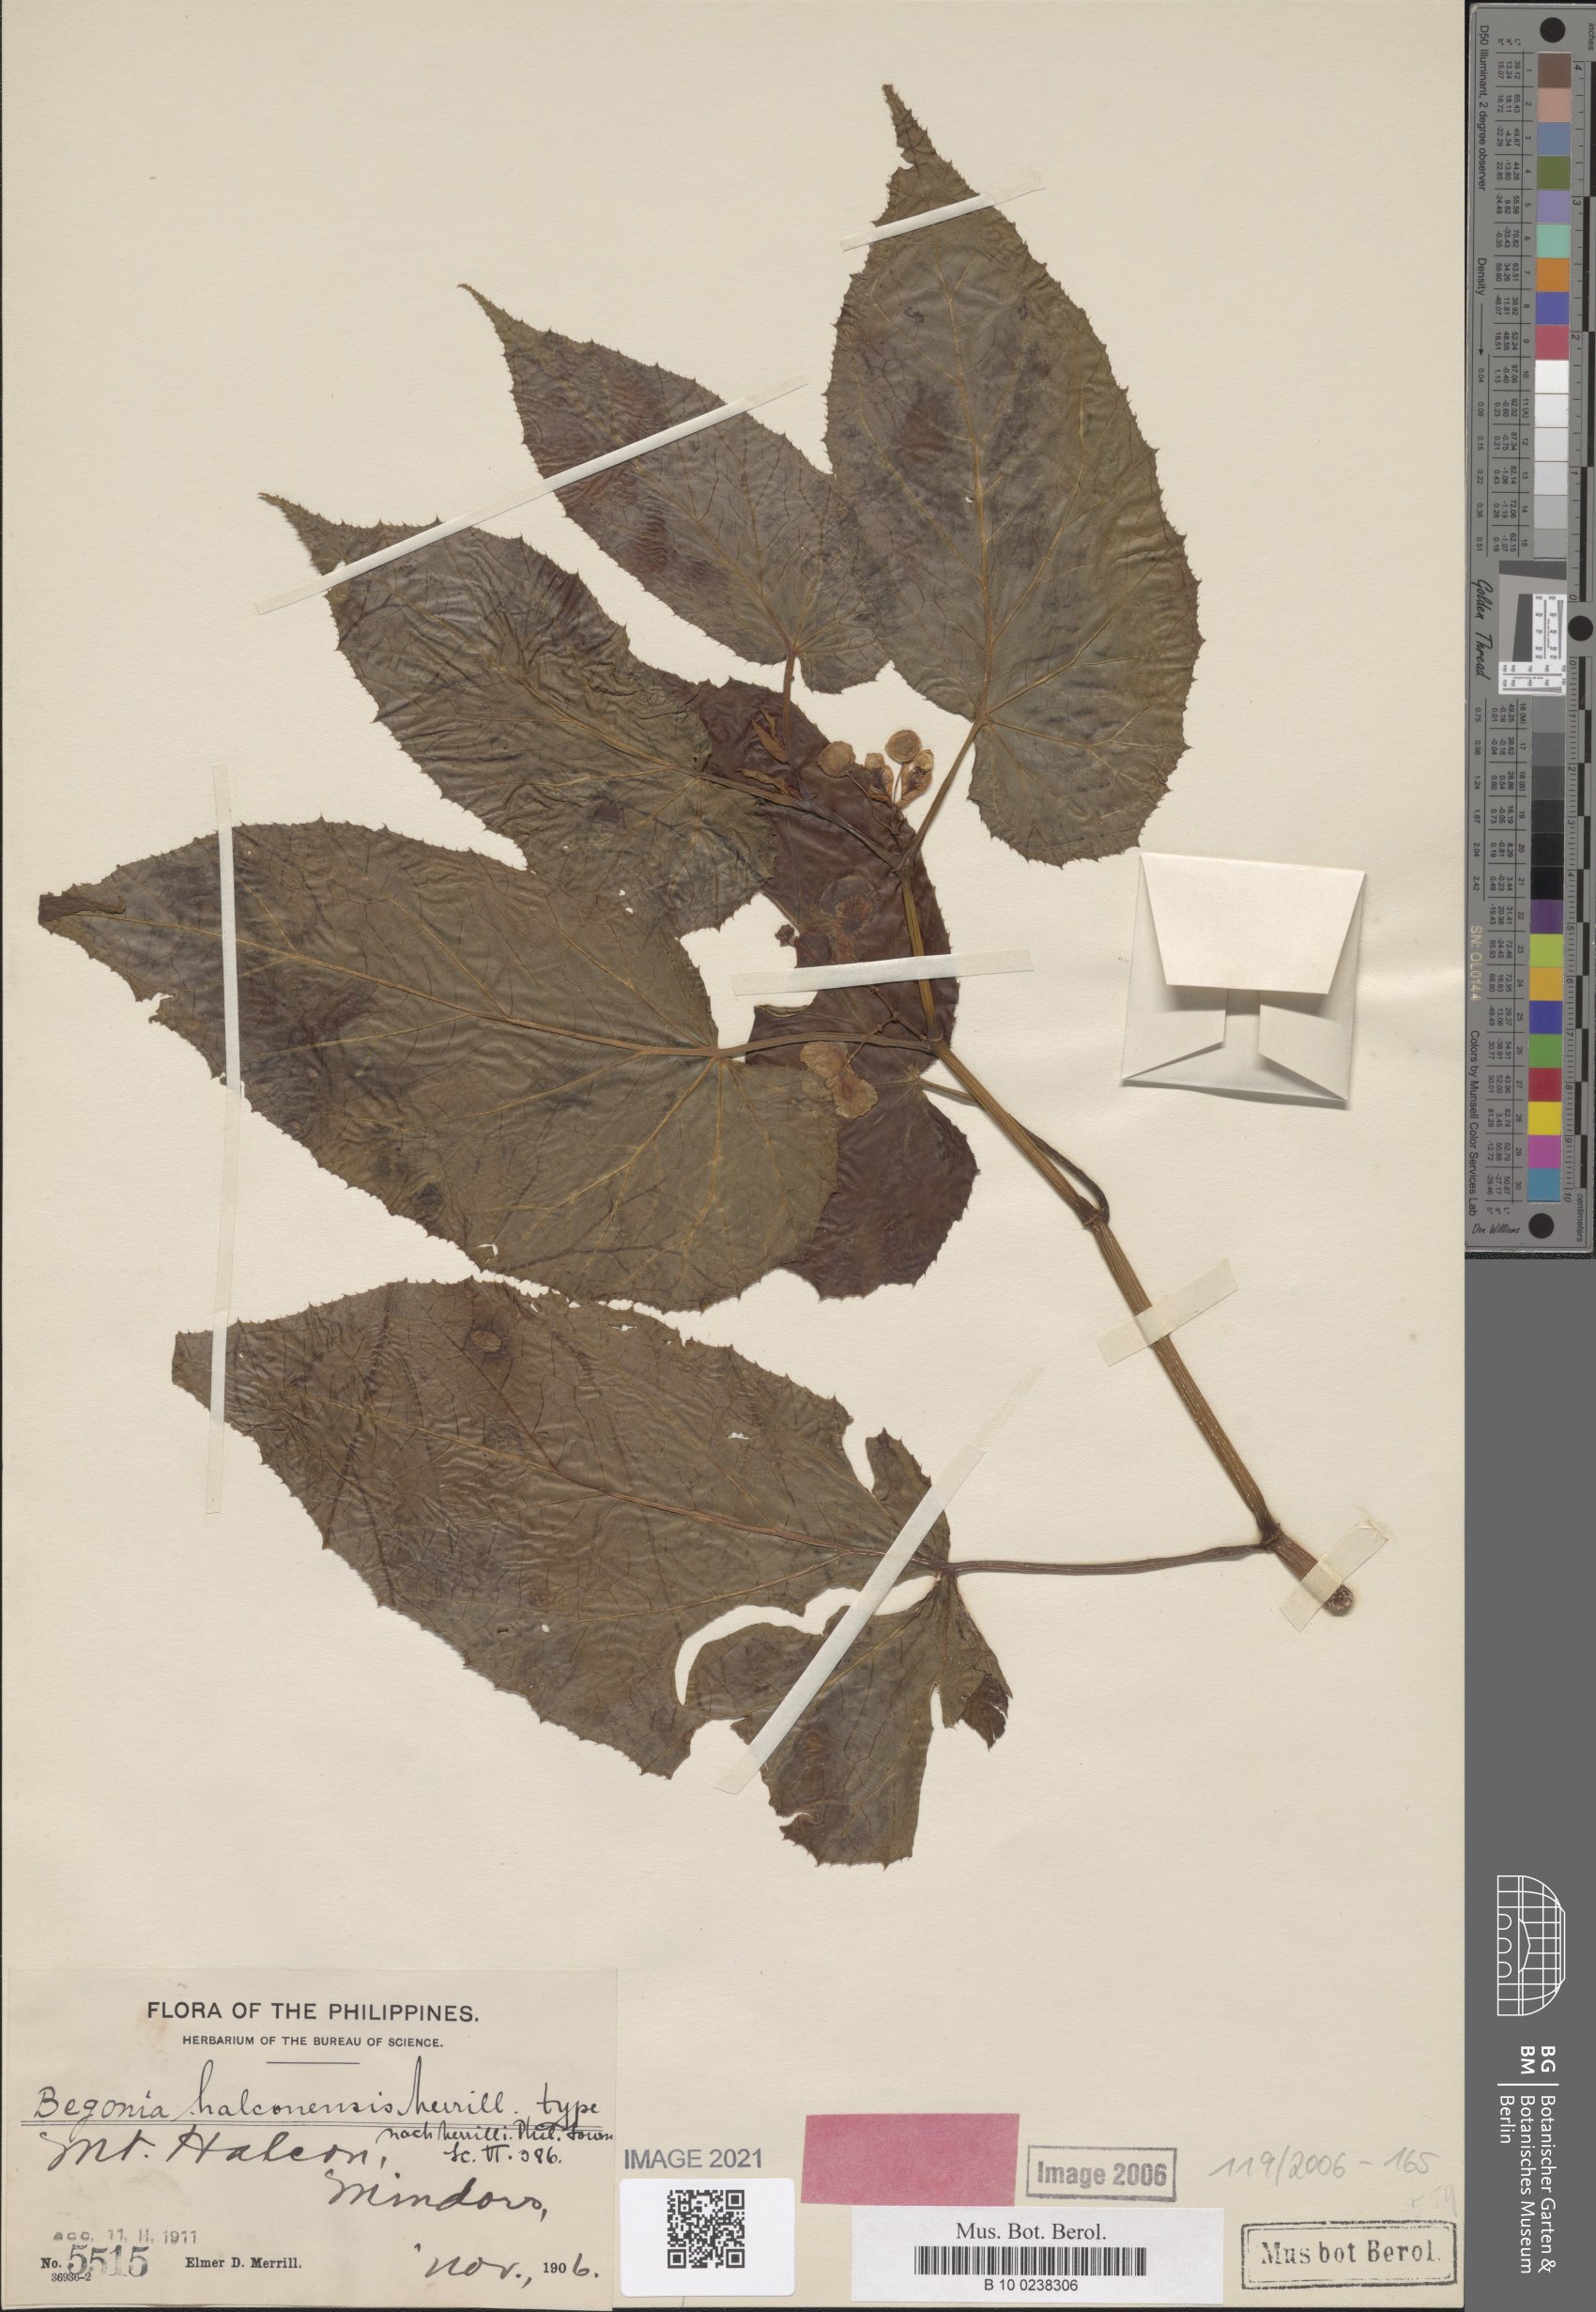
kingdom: Plantae
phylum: Tracheophyta
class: Magnoliopsida
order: Cucurbitales
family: Begoniaceae
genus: Begonia
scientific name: Begonia halconensis
